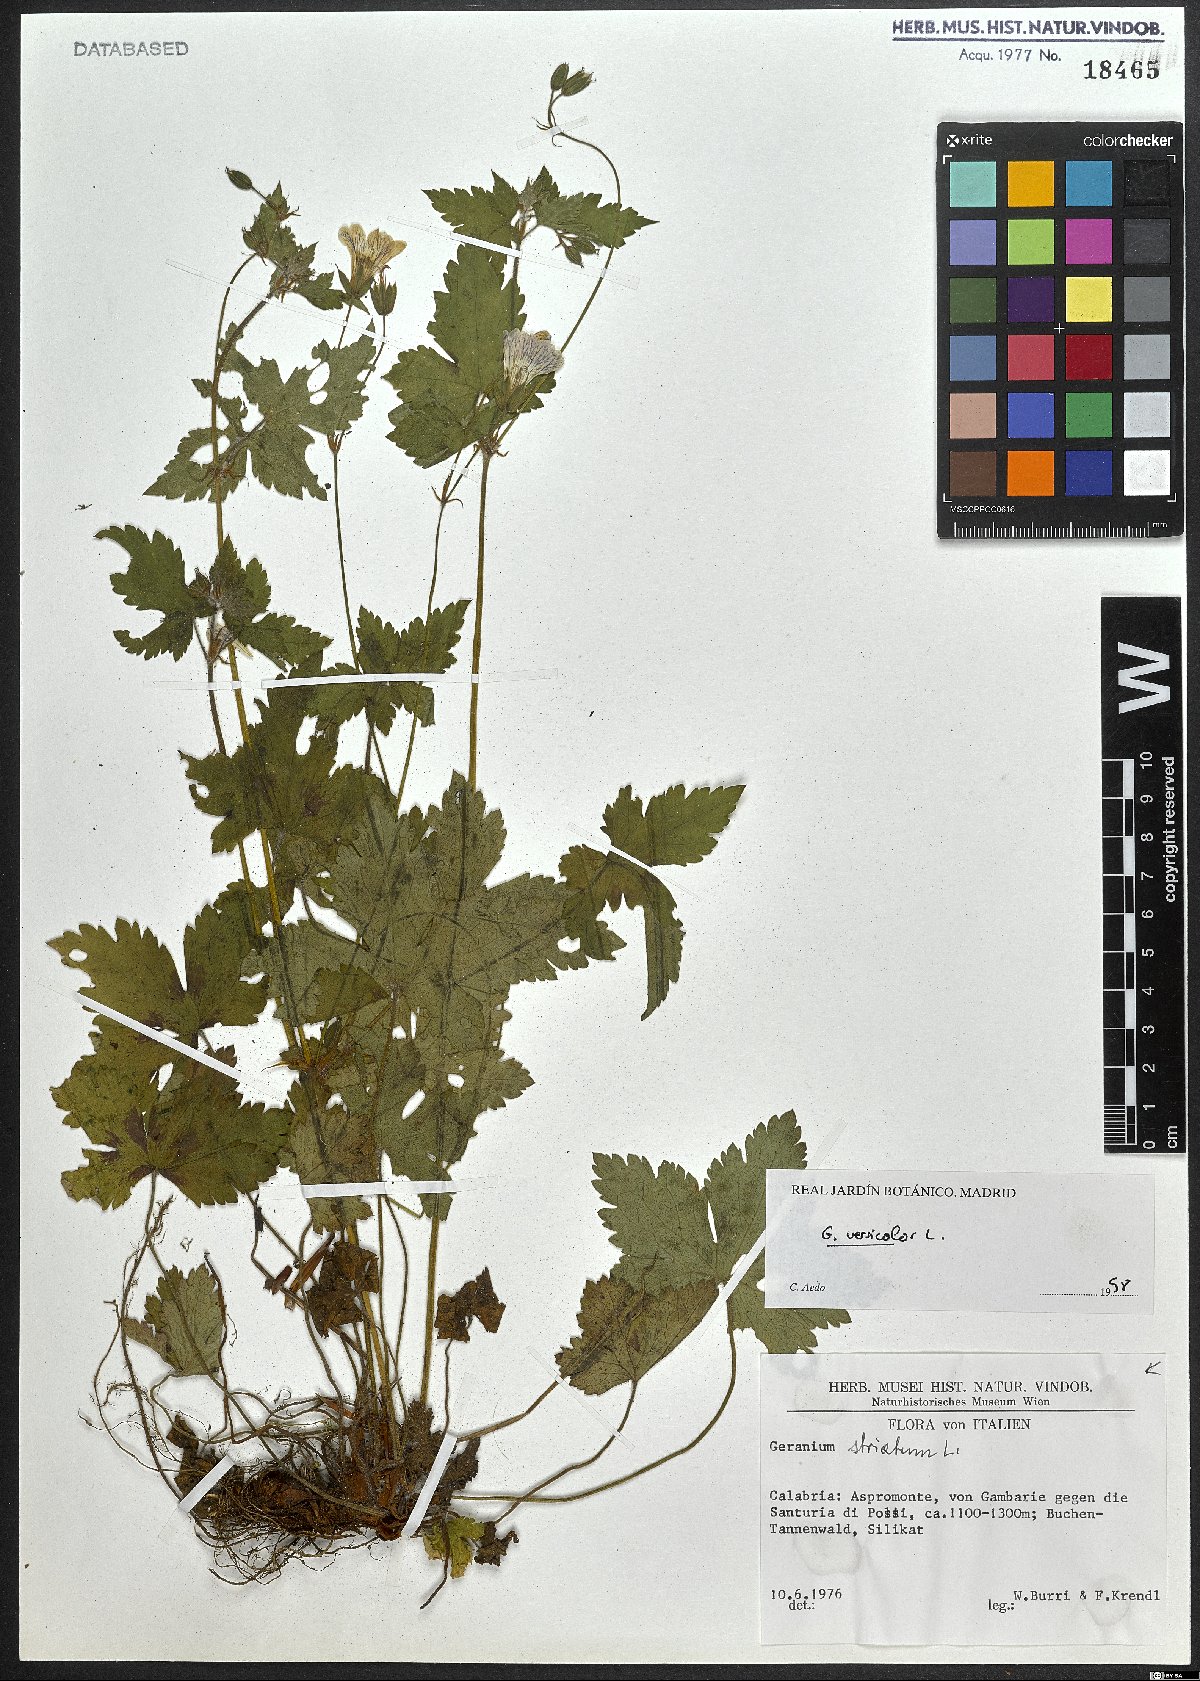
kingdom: Plantae
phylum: Tracheophyta
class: Magnoliopsida
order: Geraniales
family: Geraniaceae
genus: Geranium
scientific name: Geranium versicolor
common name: Pencilled crane's-bill
